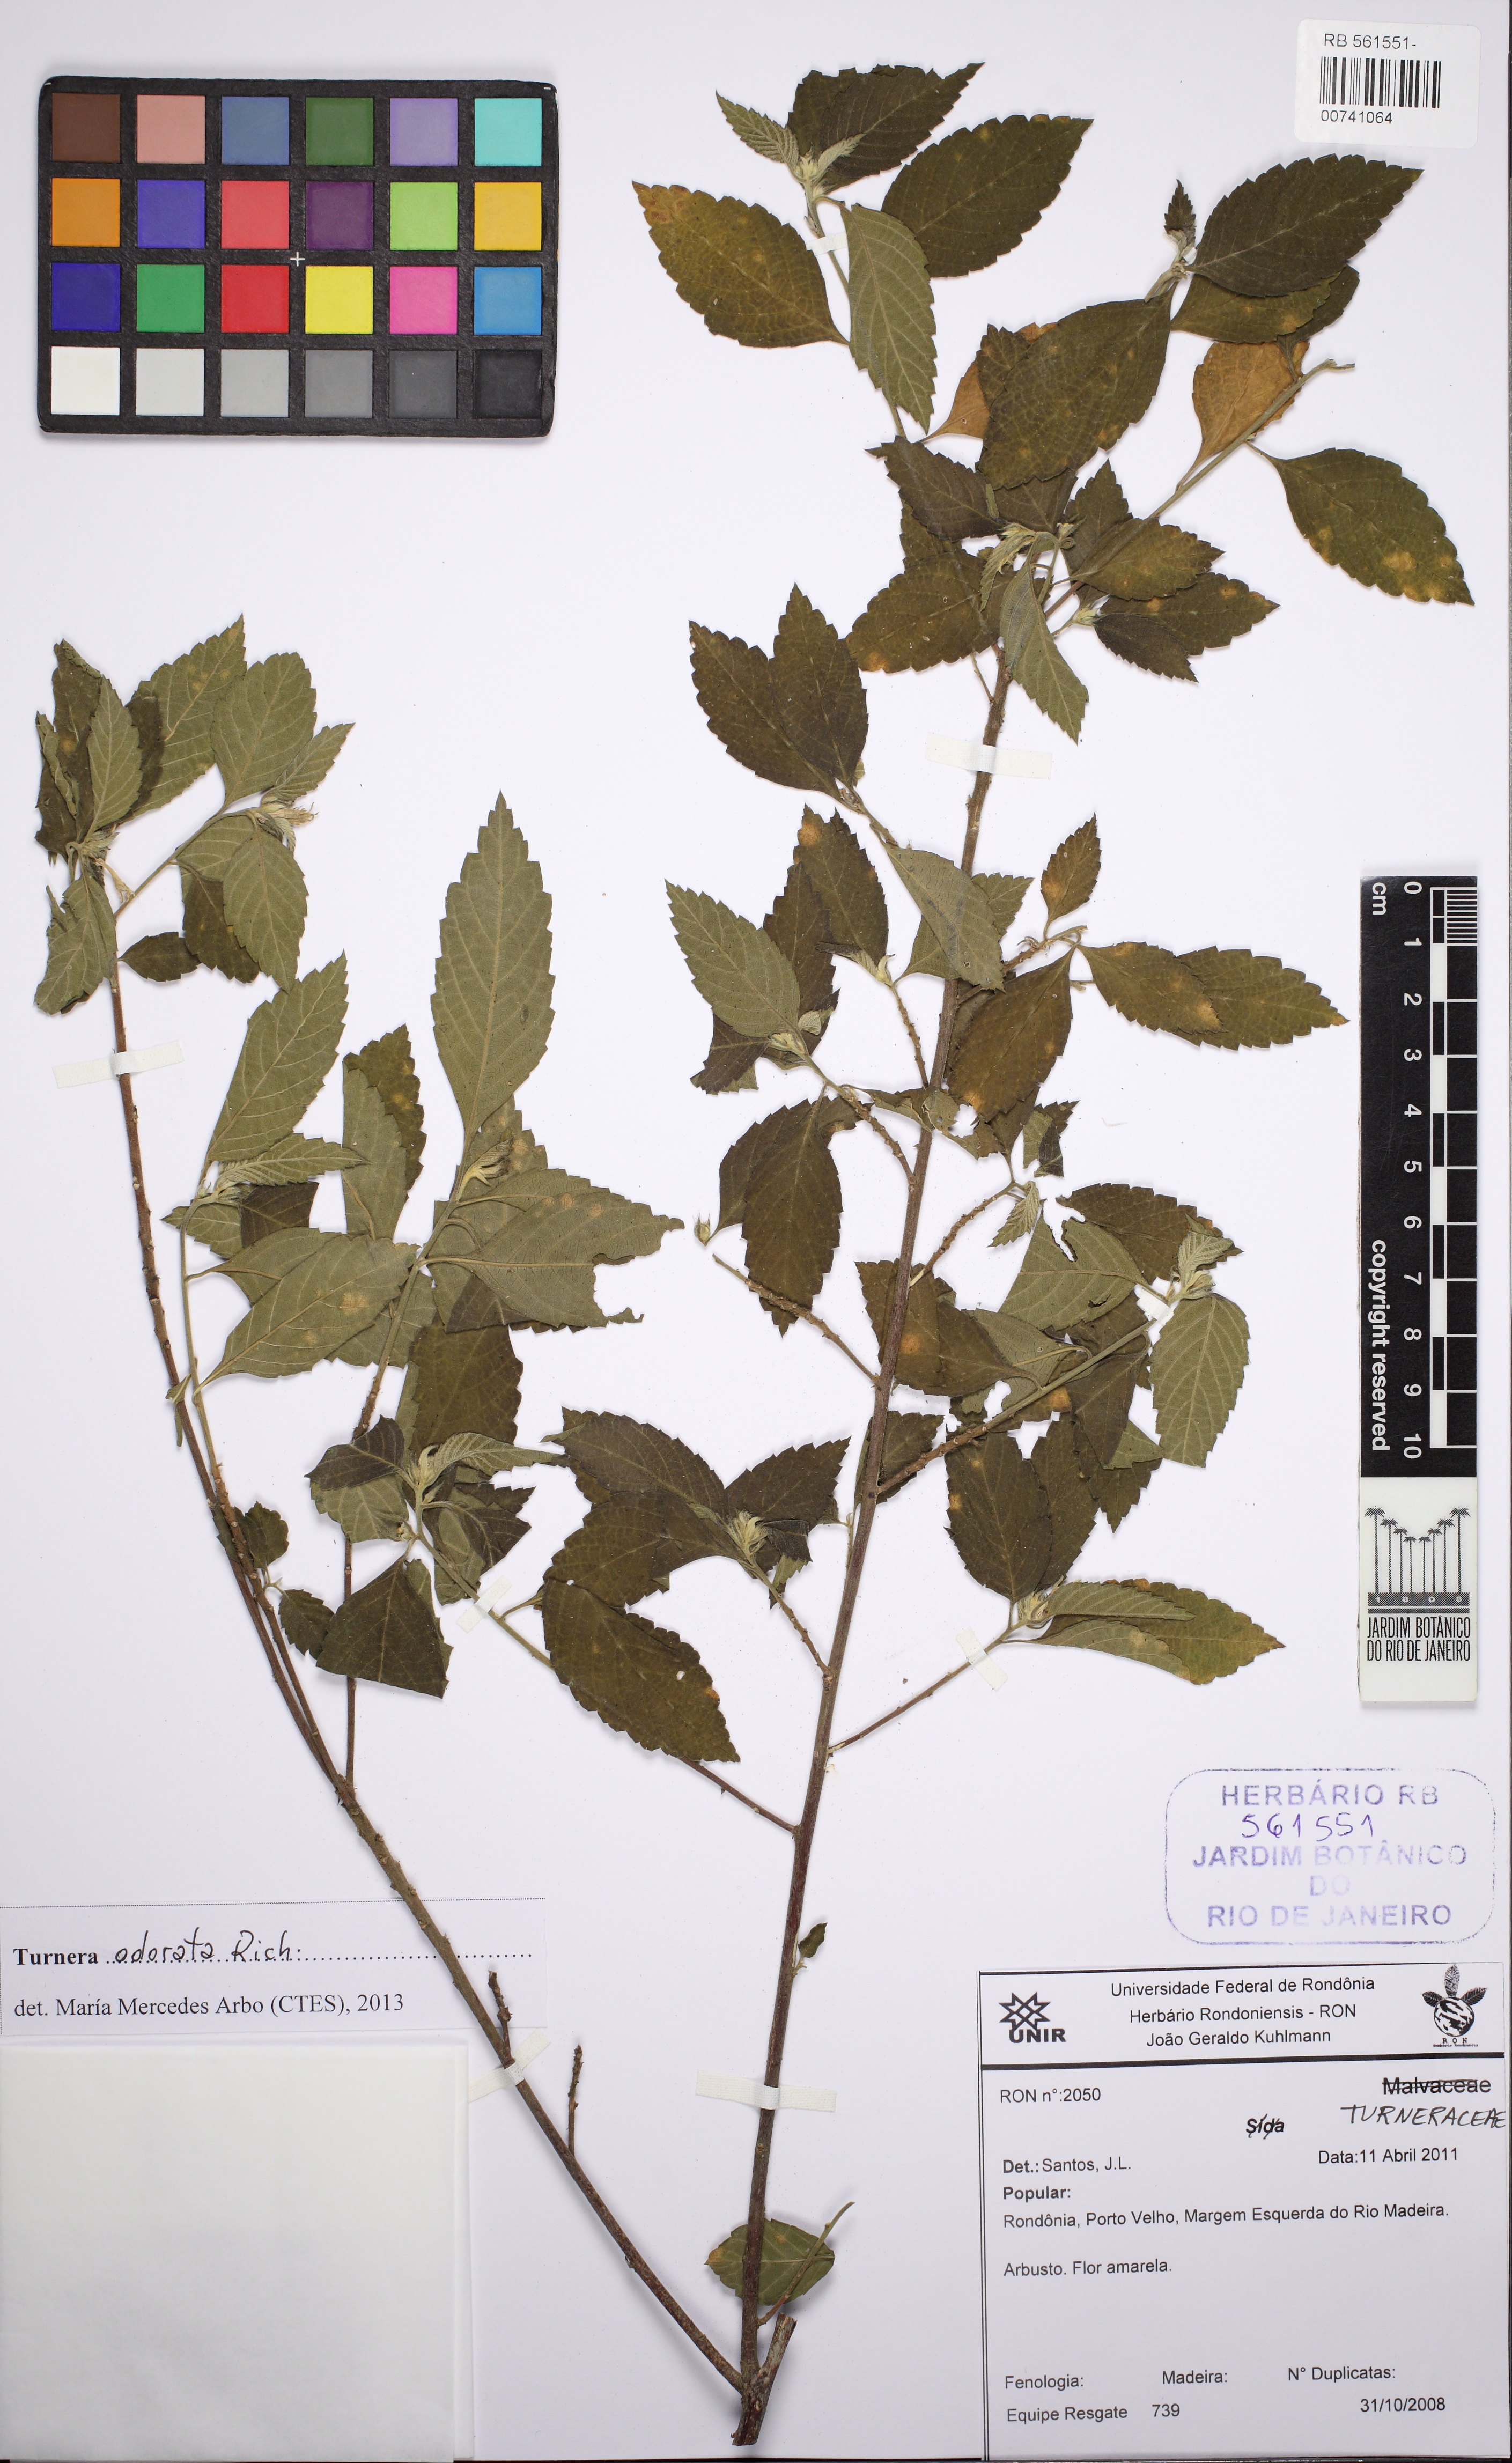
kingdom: Plantae
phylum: Tracheophyta
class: Magnoliopsida
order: Malpighiales
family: Turneraceae
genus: Turnera
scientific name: Turnera odorata
